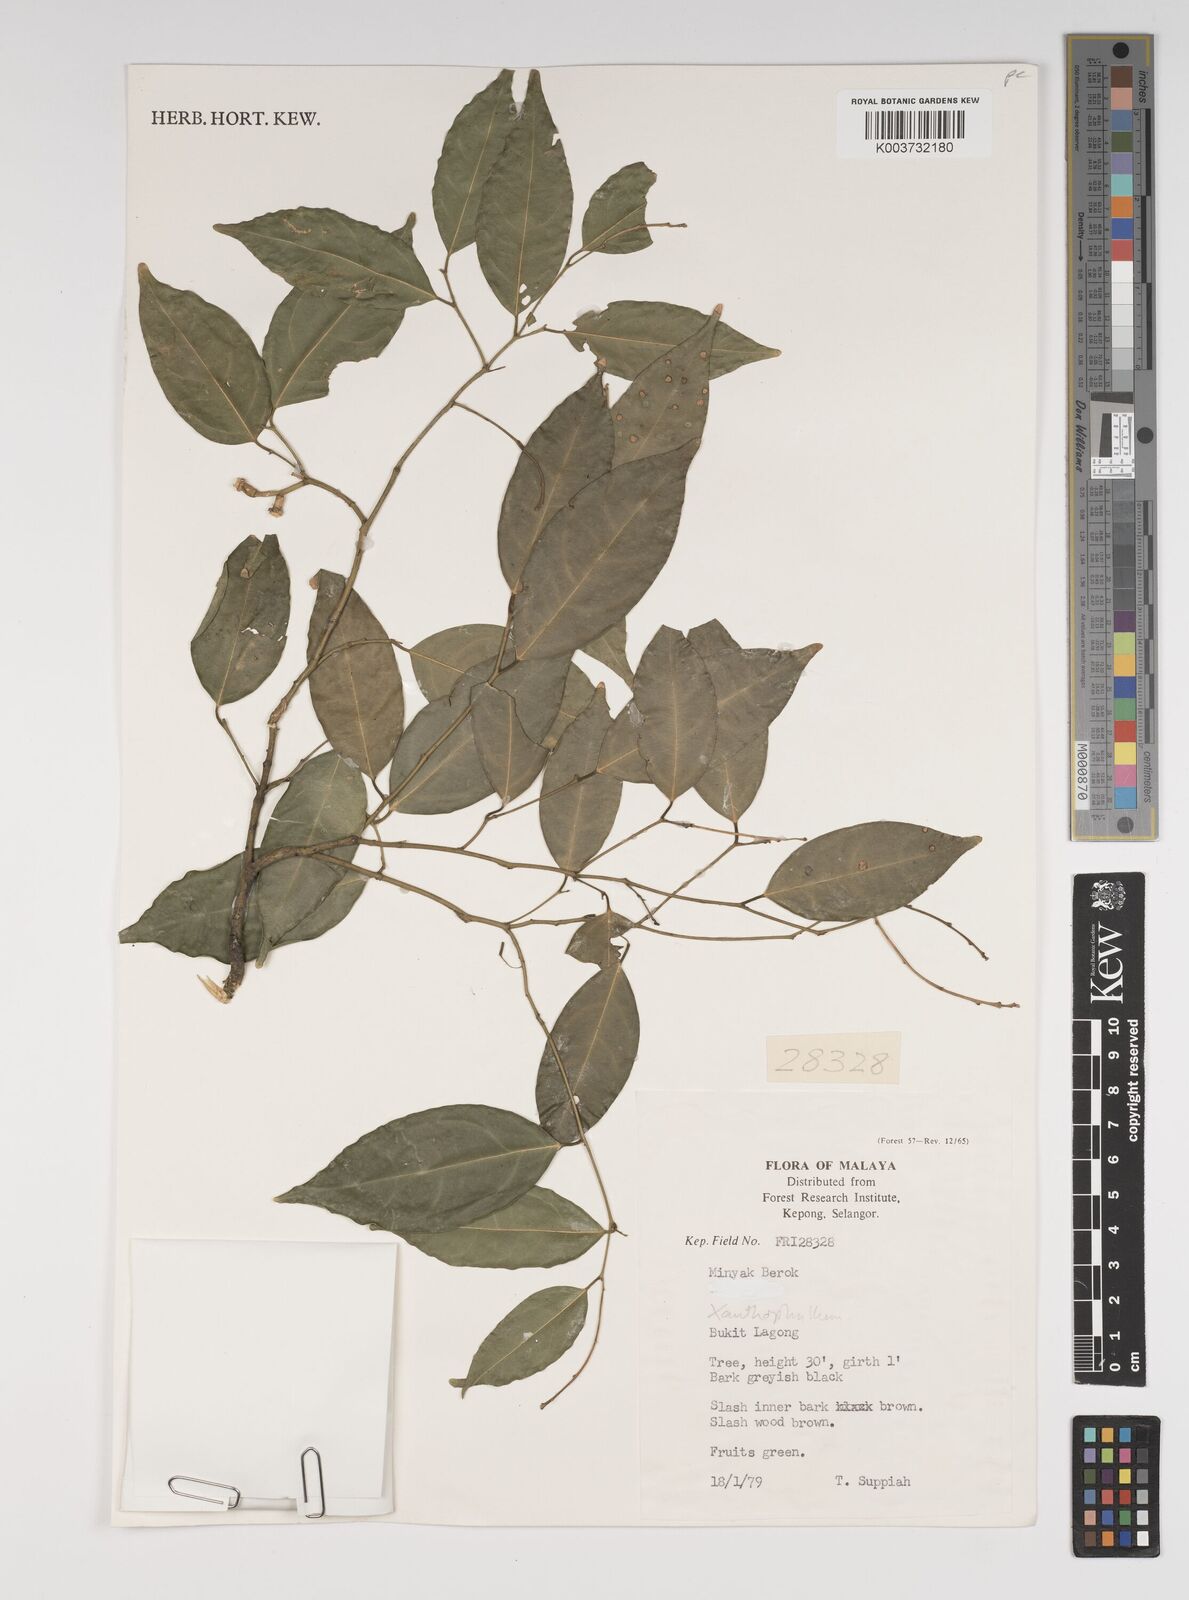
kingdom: Plantae
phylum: Tracheophyta
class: Magnoliopsida
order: Fabales
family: Polygalaceae
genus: Xanthophyllum
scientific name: Xanthophyllum
